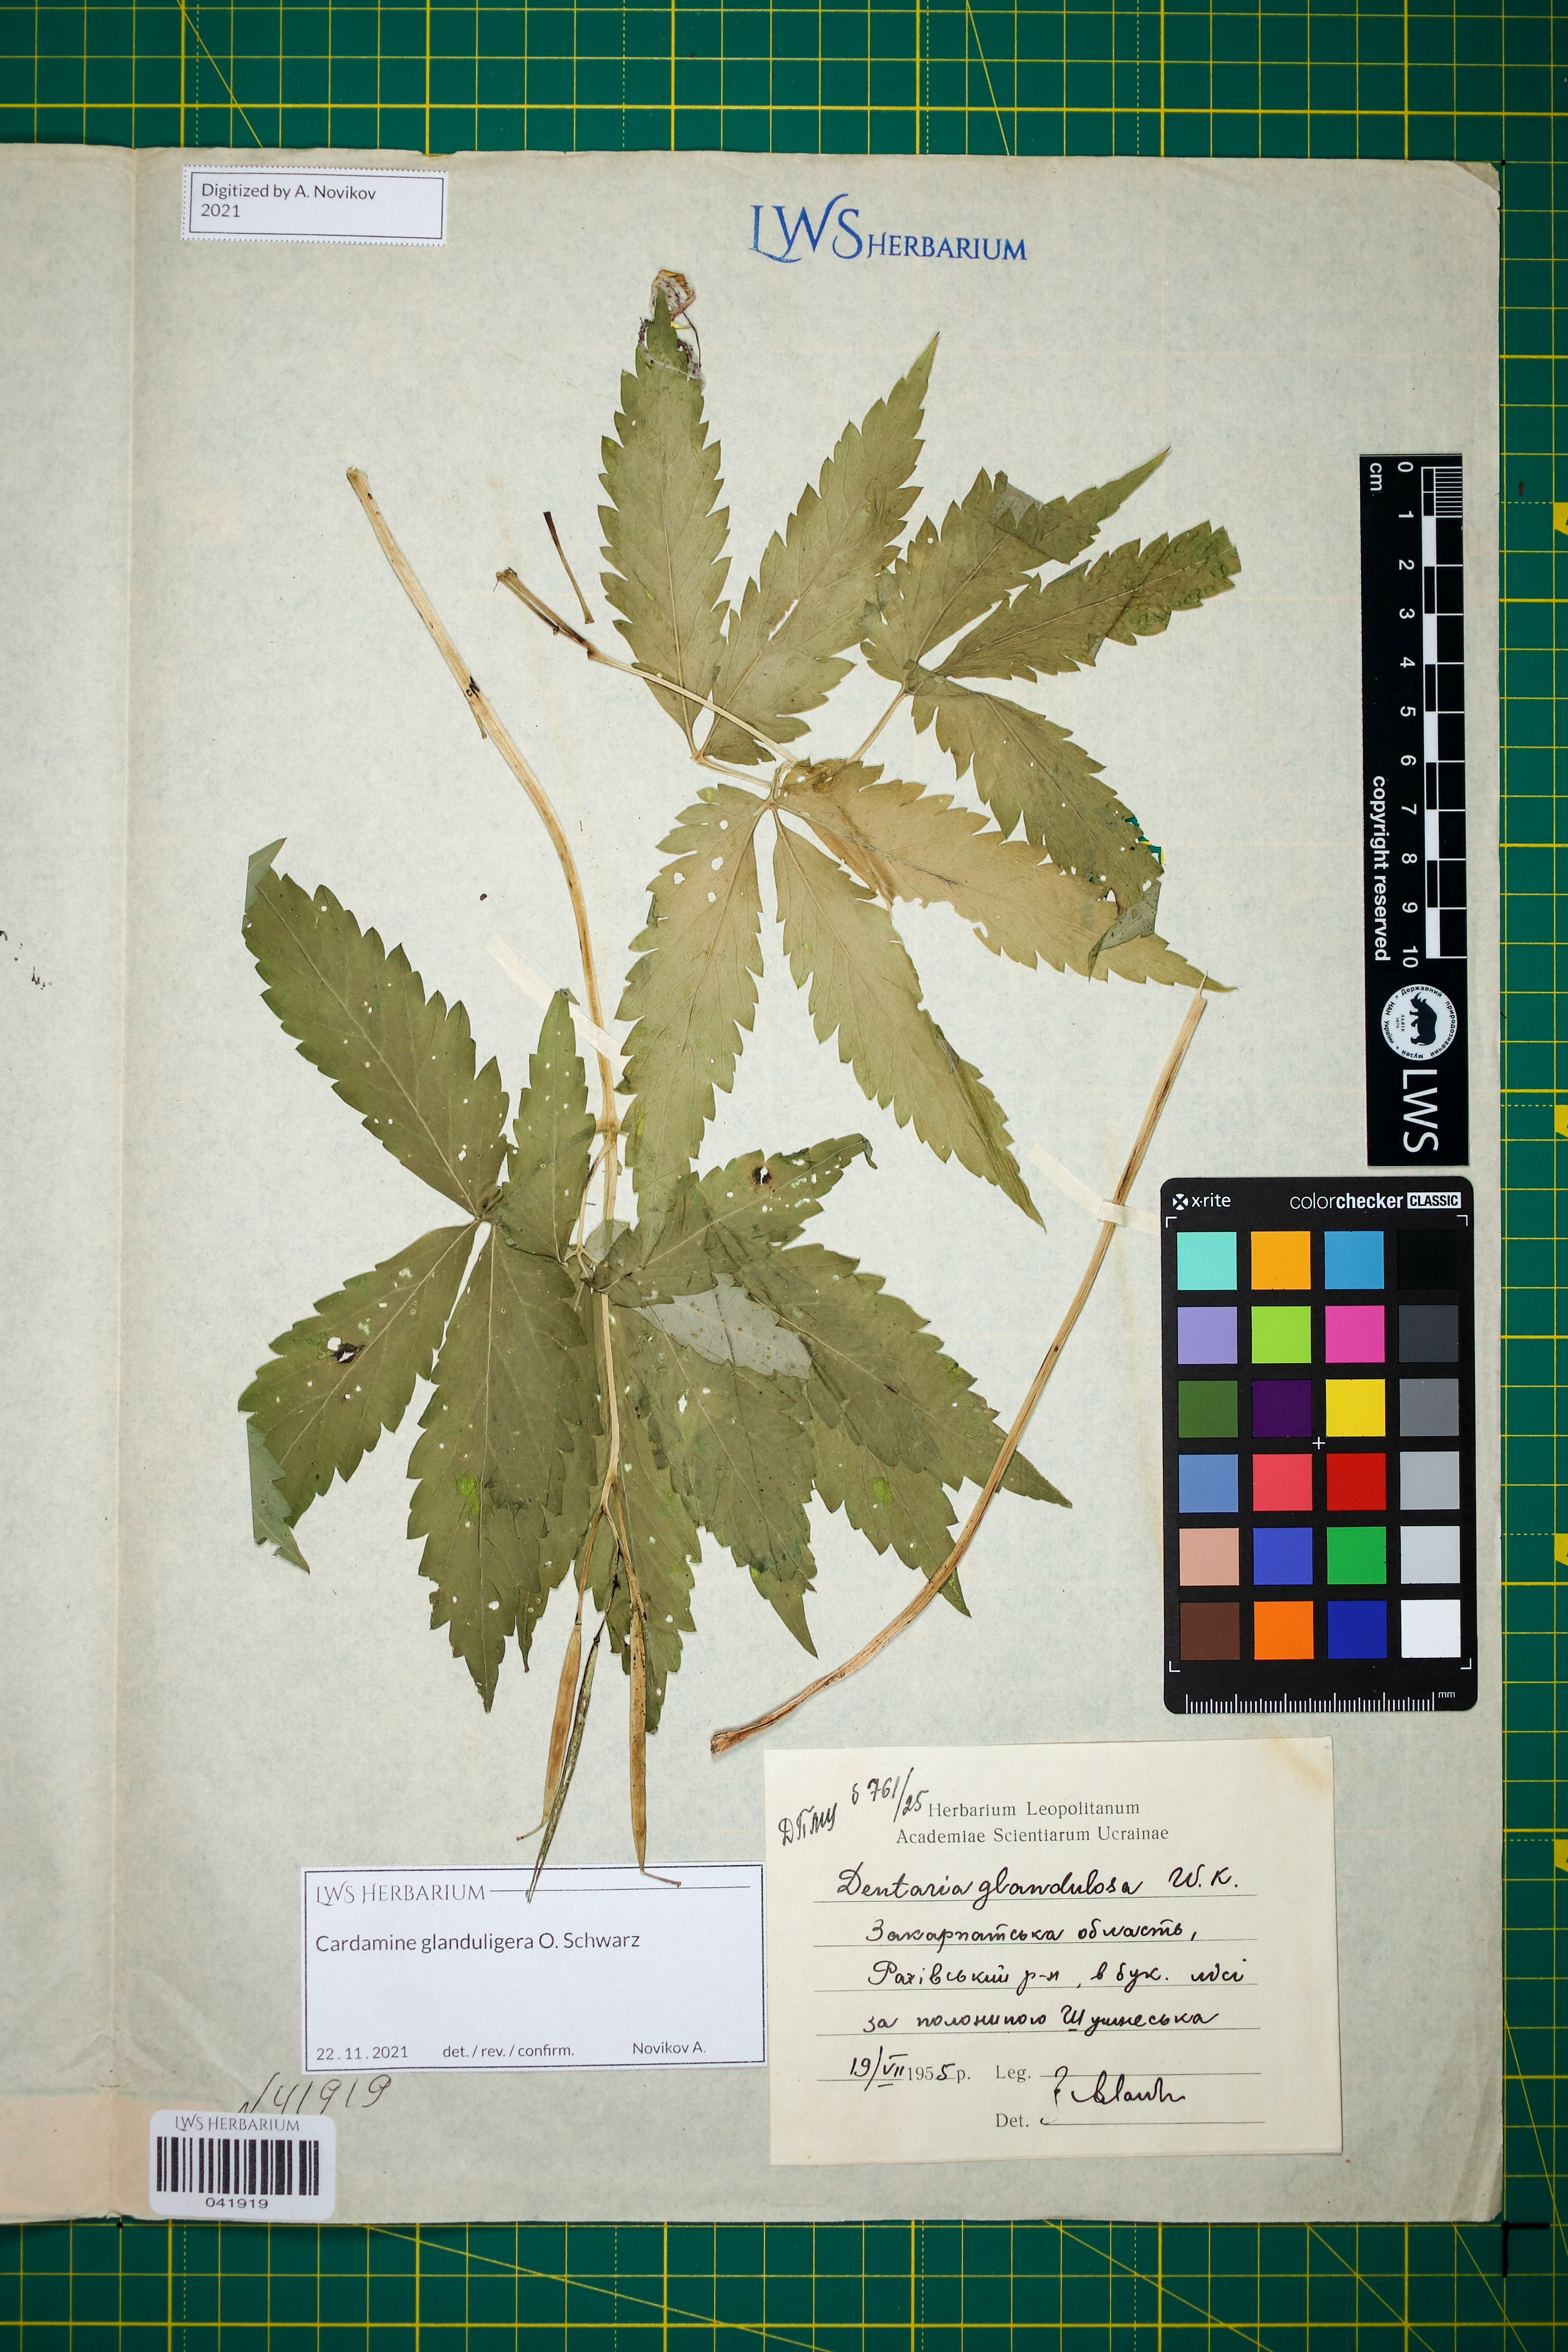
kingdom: Plantae
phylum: Tracheophyta
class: Magnoliopsida
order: Brassicales
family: Brassicaceae
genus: Cardamine
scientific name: Cardamine glanduligera
